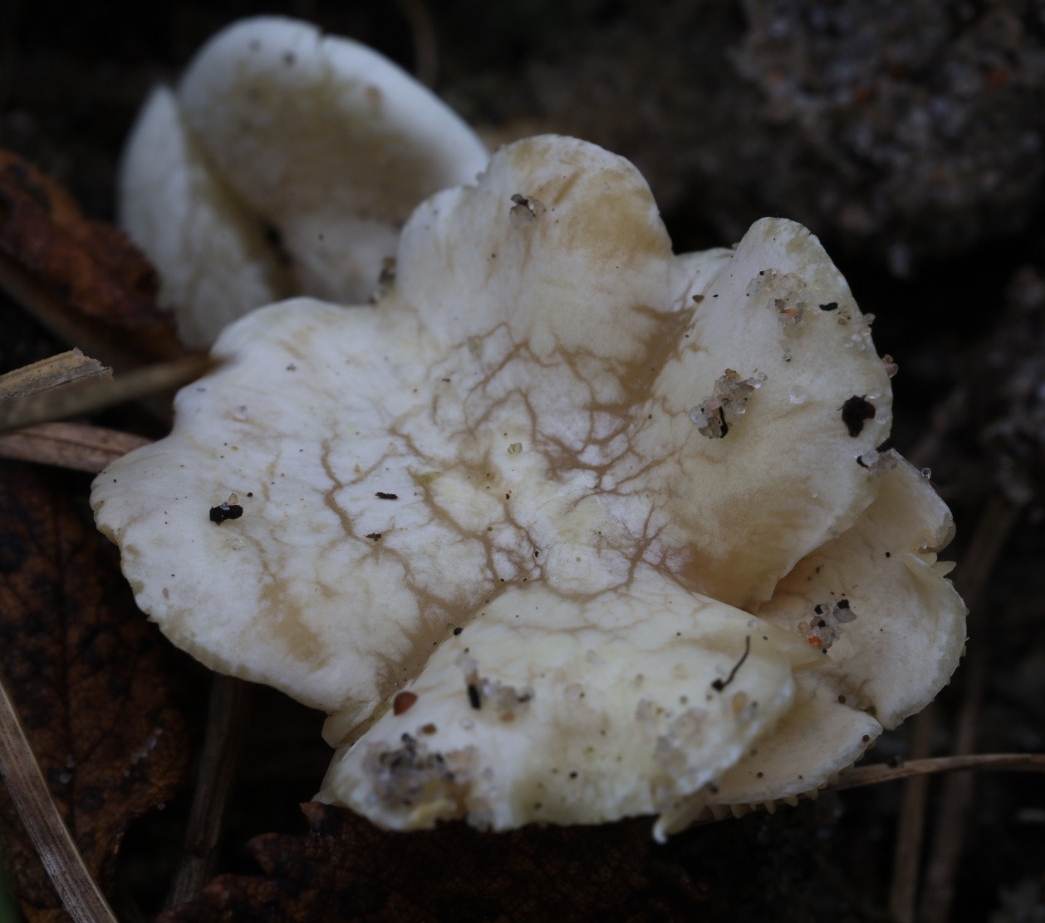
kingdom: Fungi
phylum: Basidiomycota
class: Agaricomycetes
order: Agaricales
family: Tricholomataceae
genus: Lulesia
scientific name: Lulesia
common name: hvid troldhat
